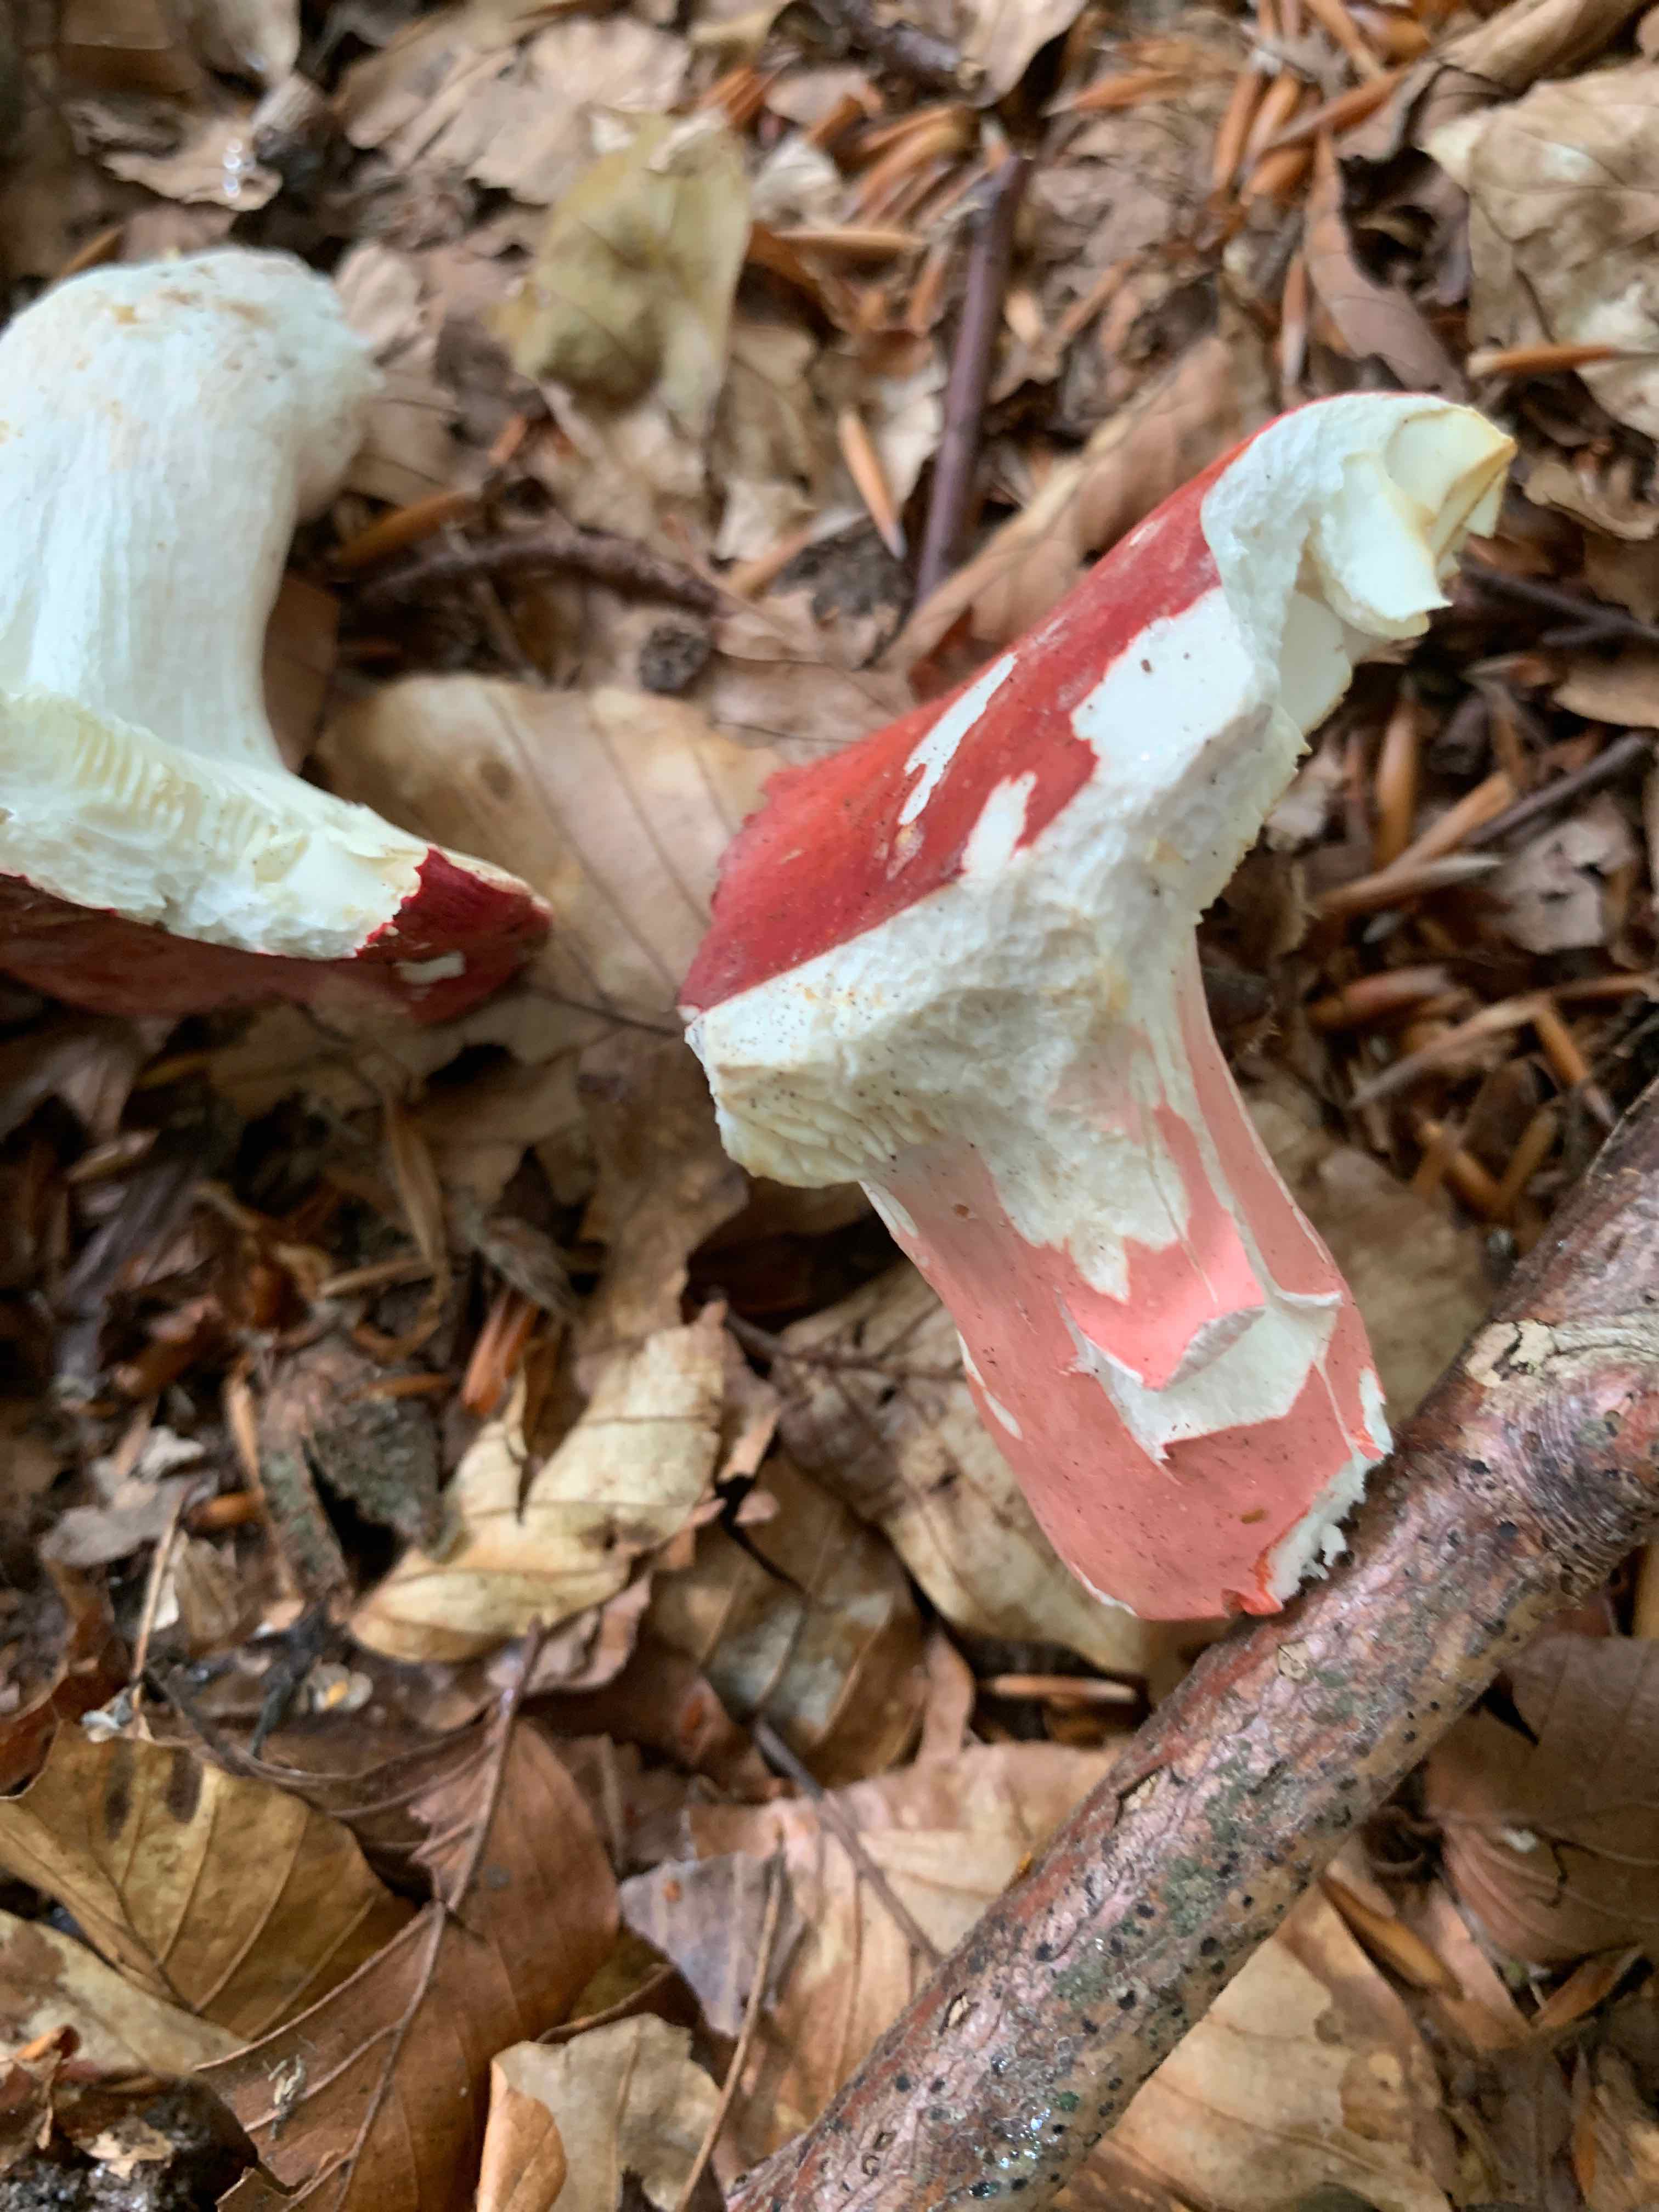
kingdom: Fungi
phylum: Basidiomycota
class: Agaricomycetes
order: Russulales
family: Russulaceae
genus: Russula
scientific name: Russula rosea
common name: fastkødet skørhat
